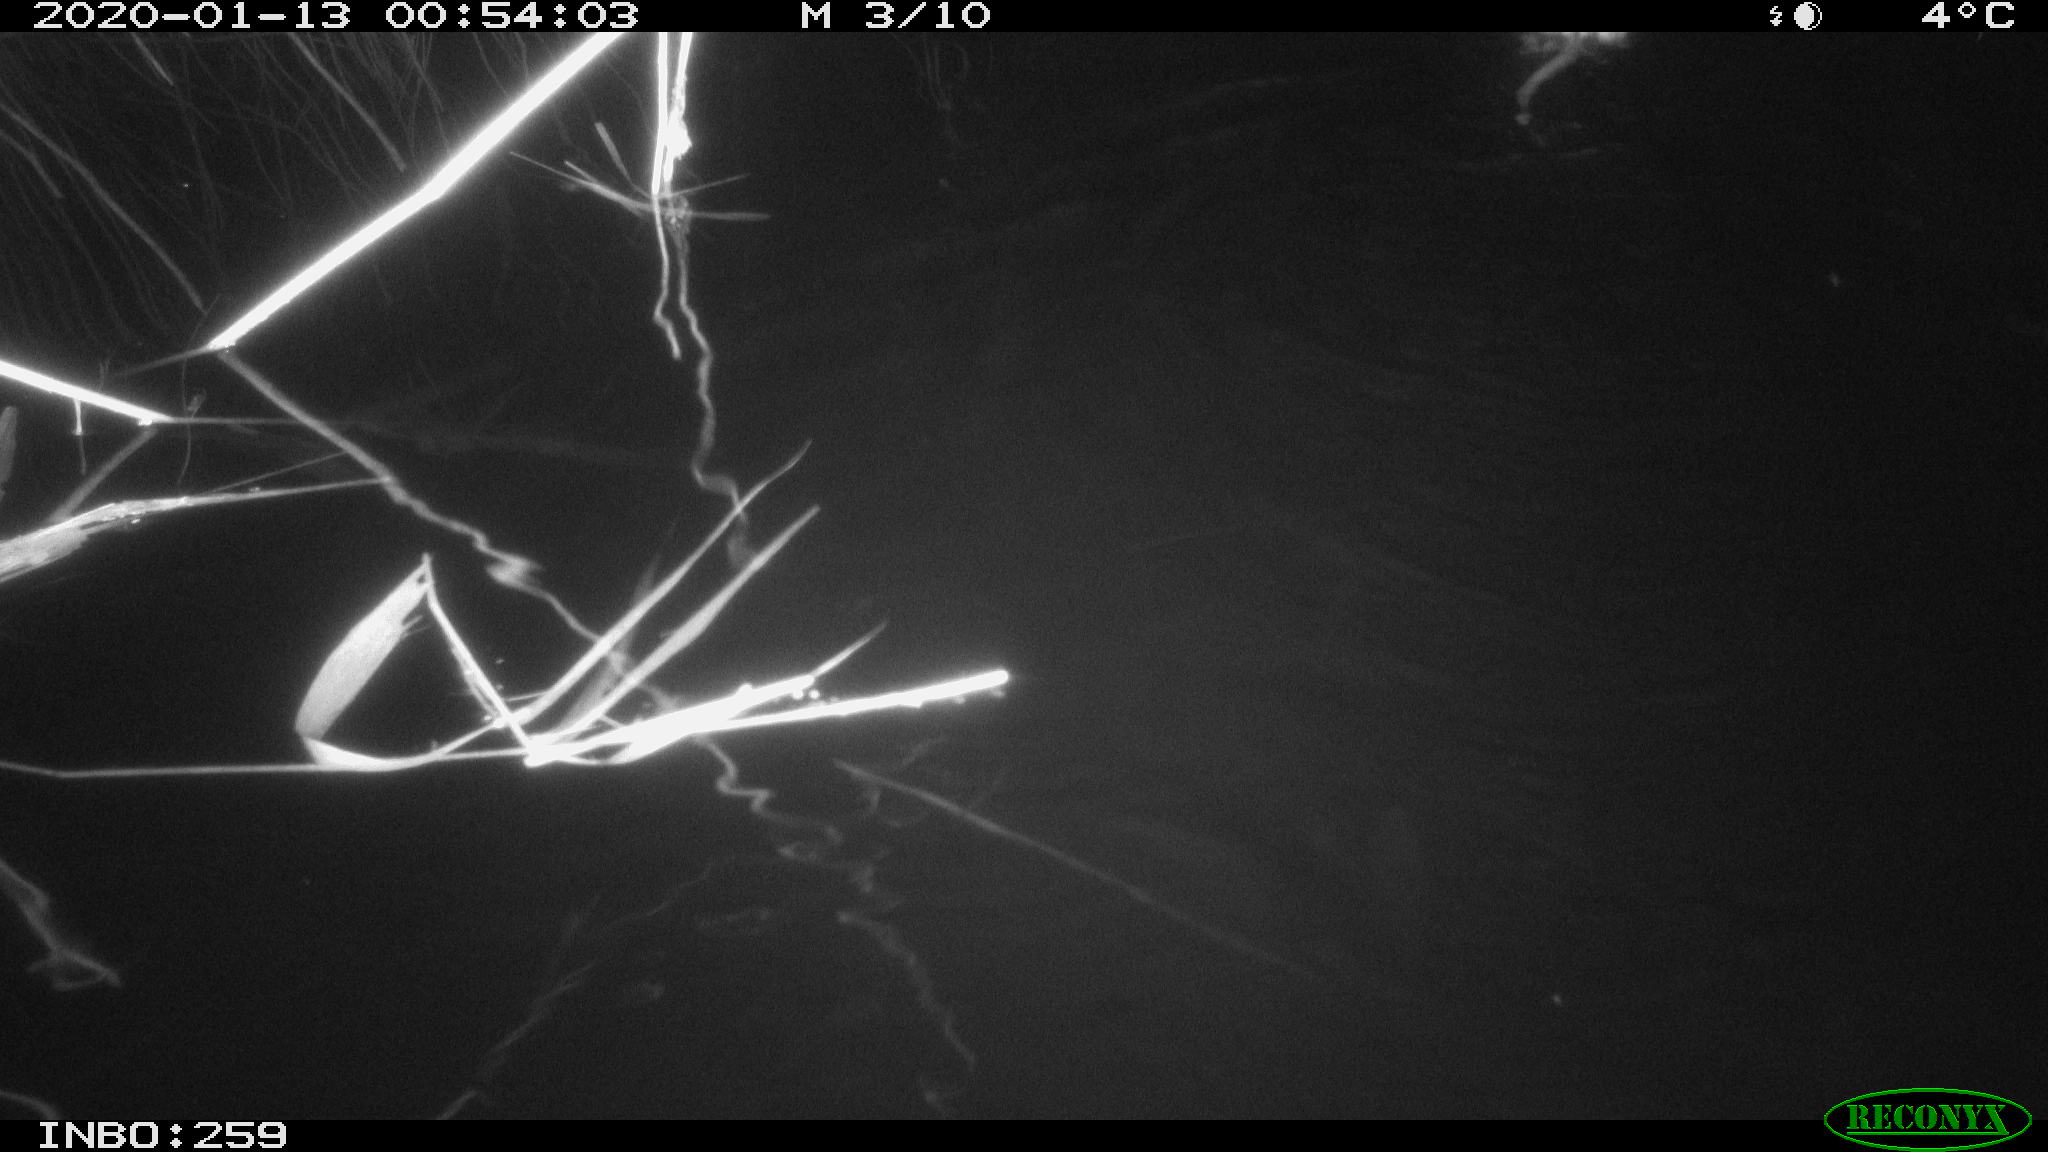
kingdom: Animalia
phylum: Chordata
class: Mammalia
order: Rodentia
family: Cricetidae
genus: Ondatra
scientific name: Ondatra zibethicus
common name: Muskrat
